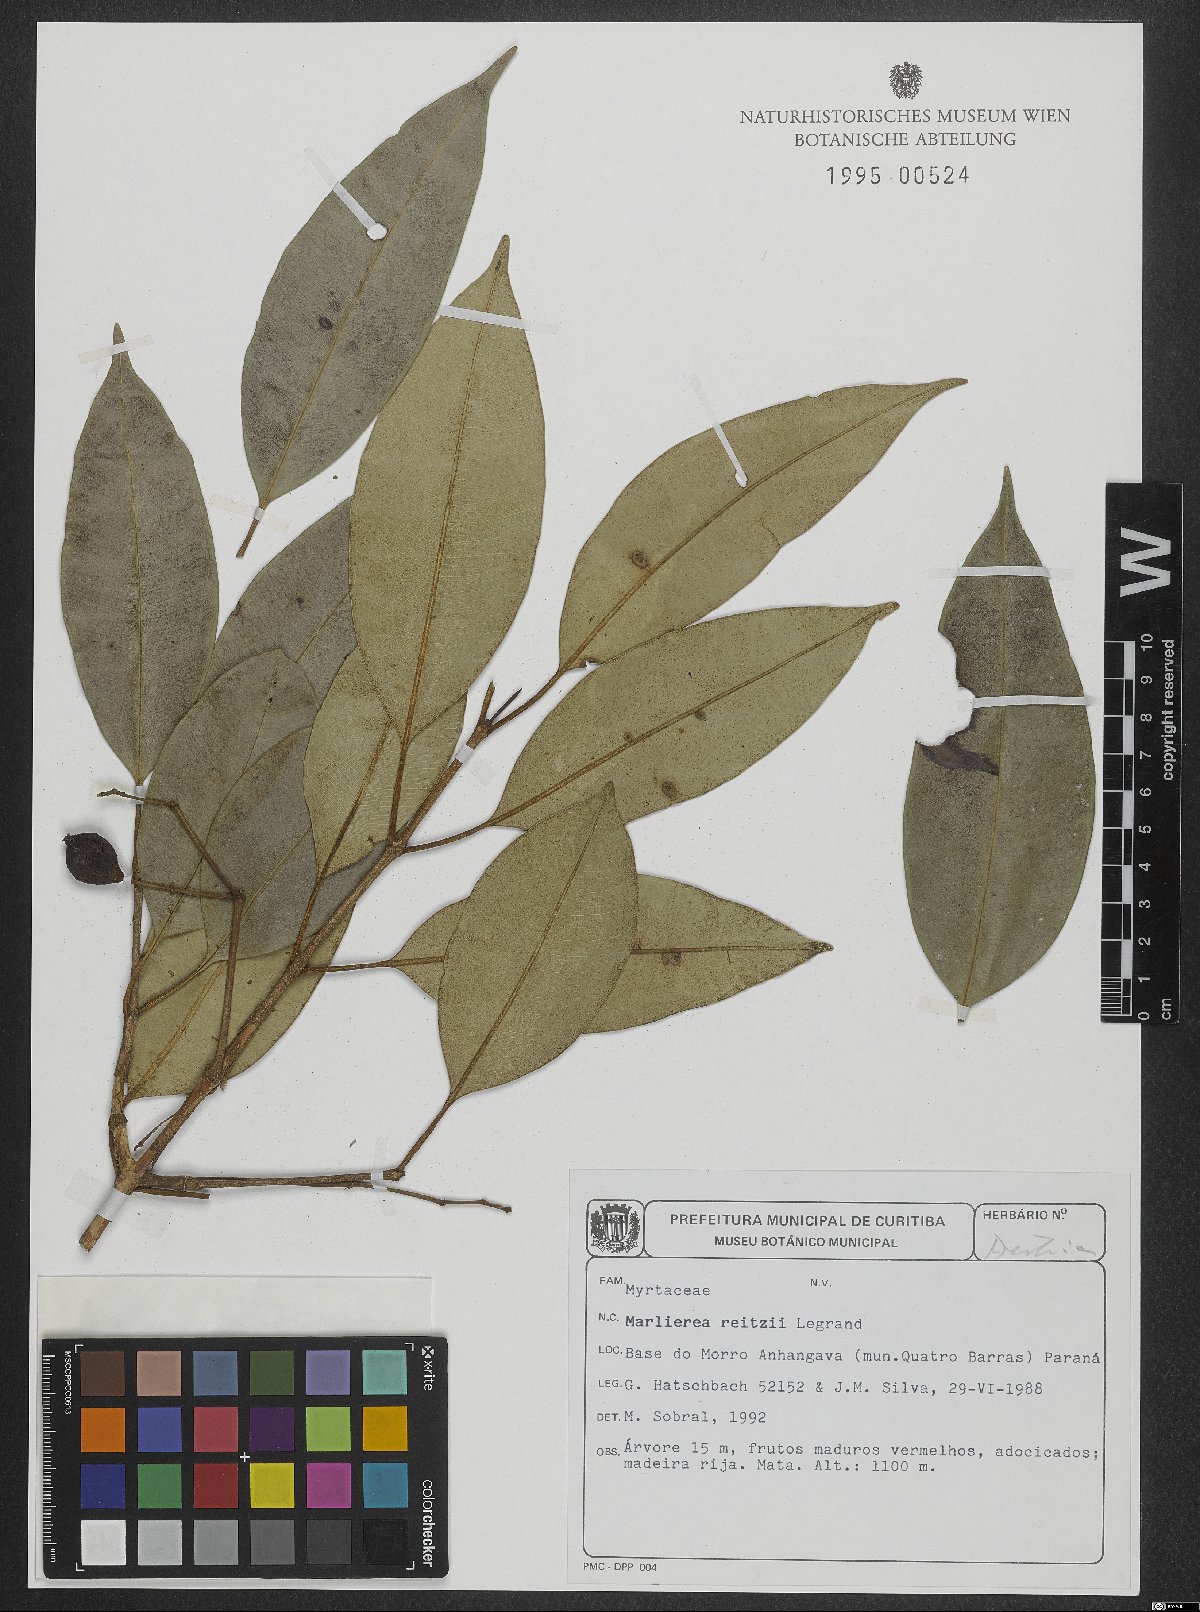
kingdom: Plantae
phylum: Tracheophyta
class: Magnoliopsida
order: Myrtales
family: Myrtaceae
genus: Myrcia
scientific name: Myrcia reitzii
